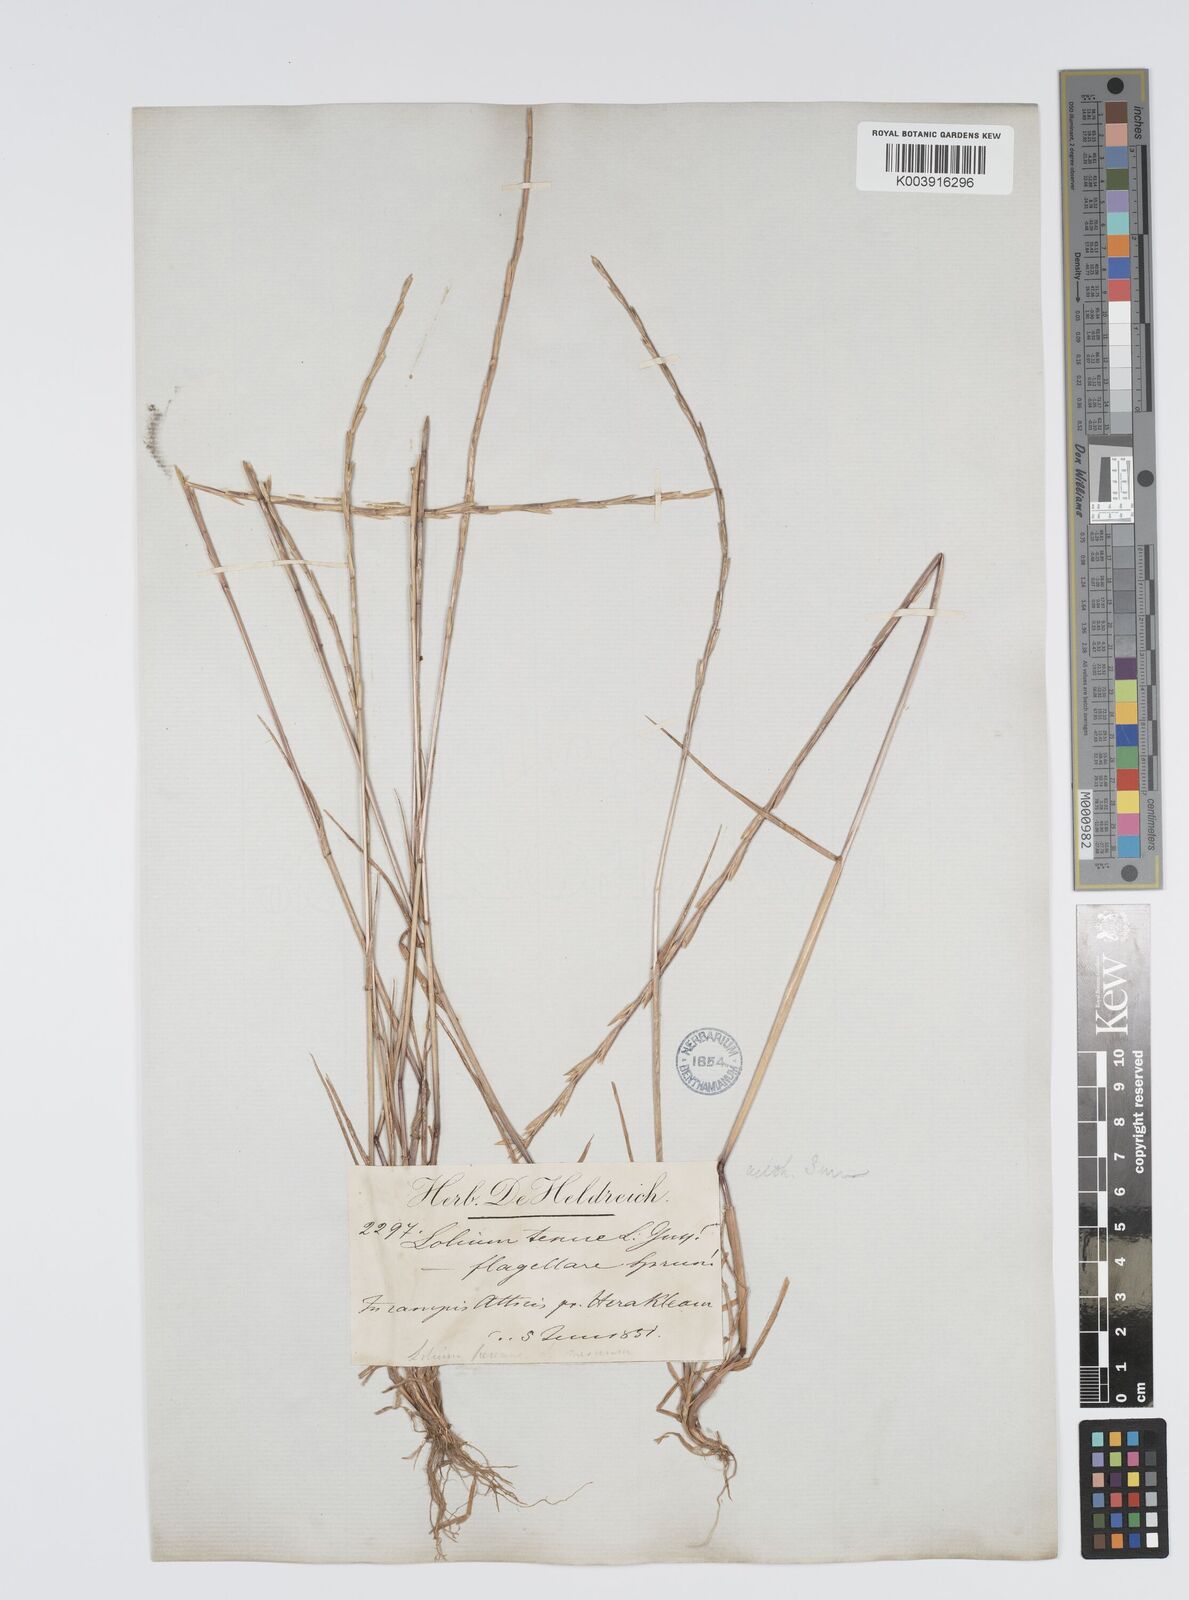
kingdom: Plantae
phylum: Tracheophyta
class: Liliopsida
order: Poales
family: Poaceae
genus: Lolium
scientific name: Lolium rigidum
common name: Wimmera ryegrass
